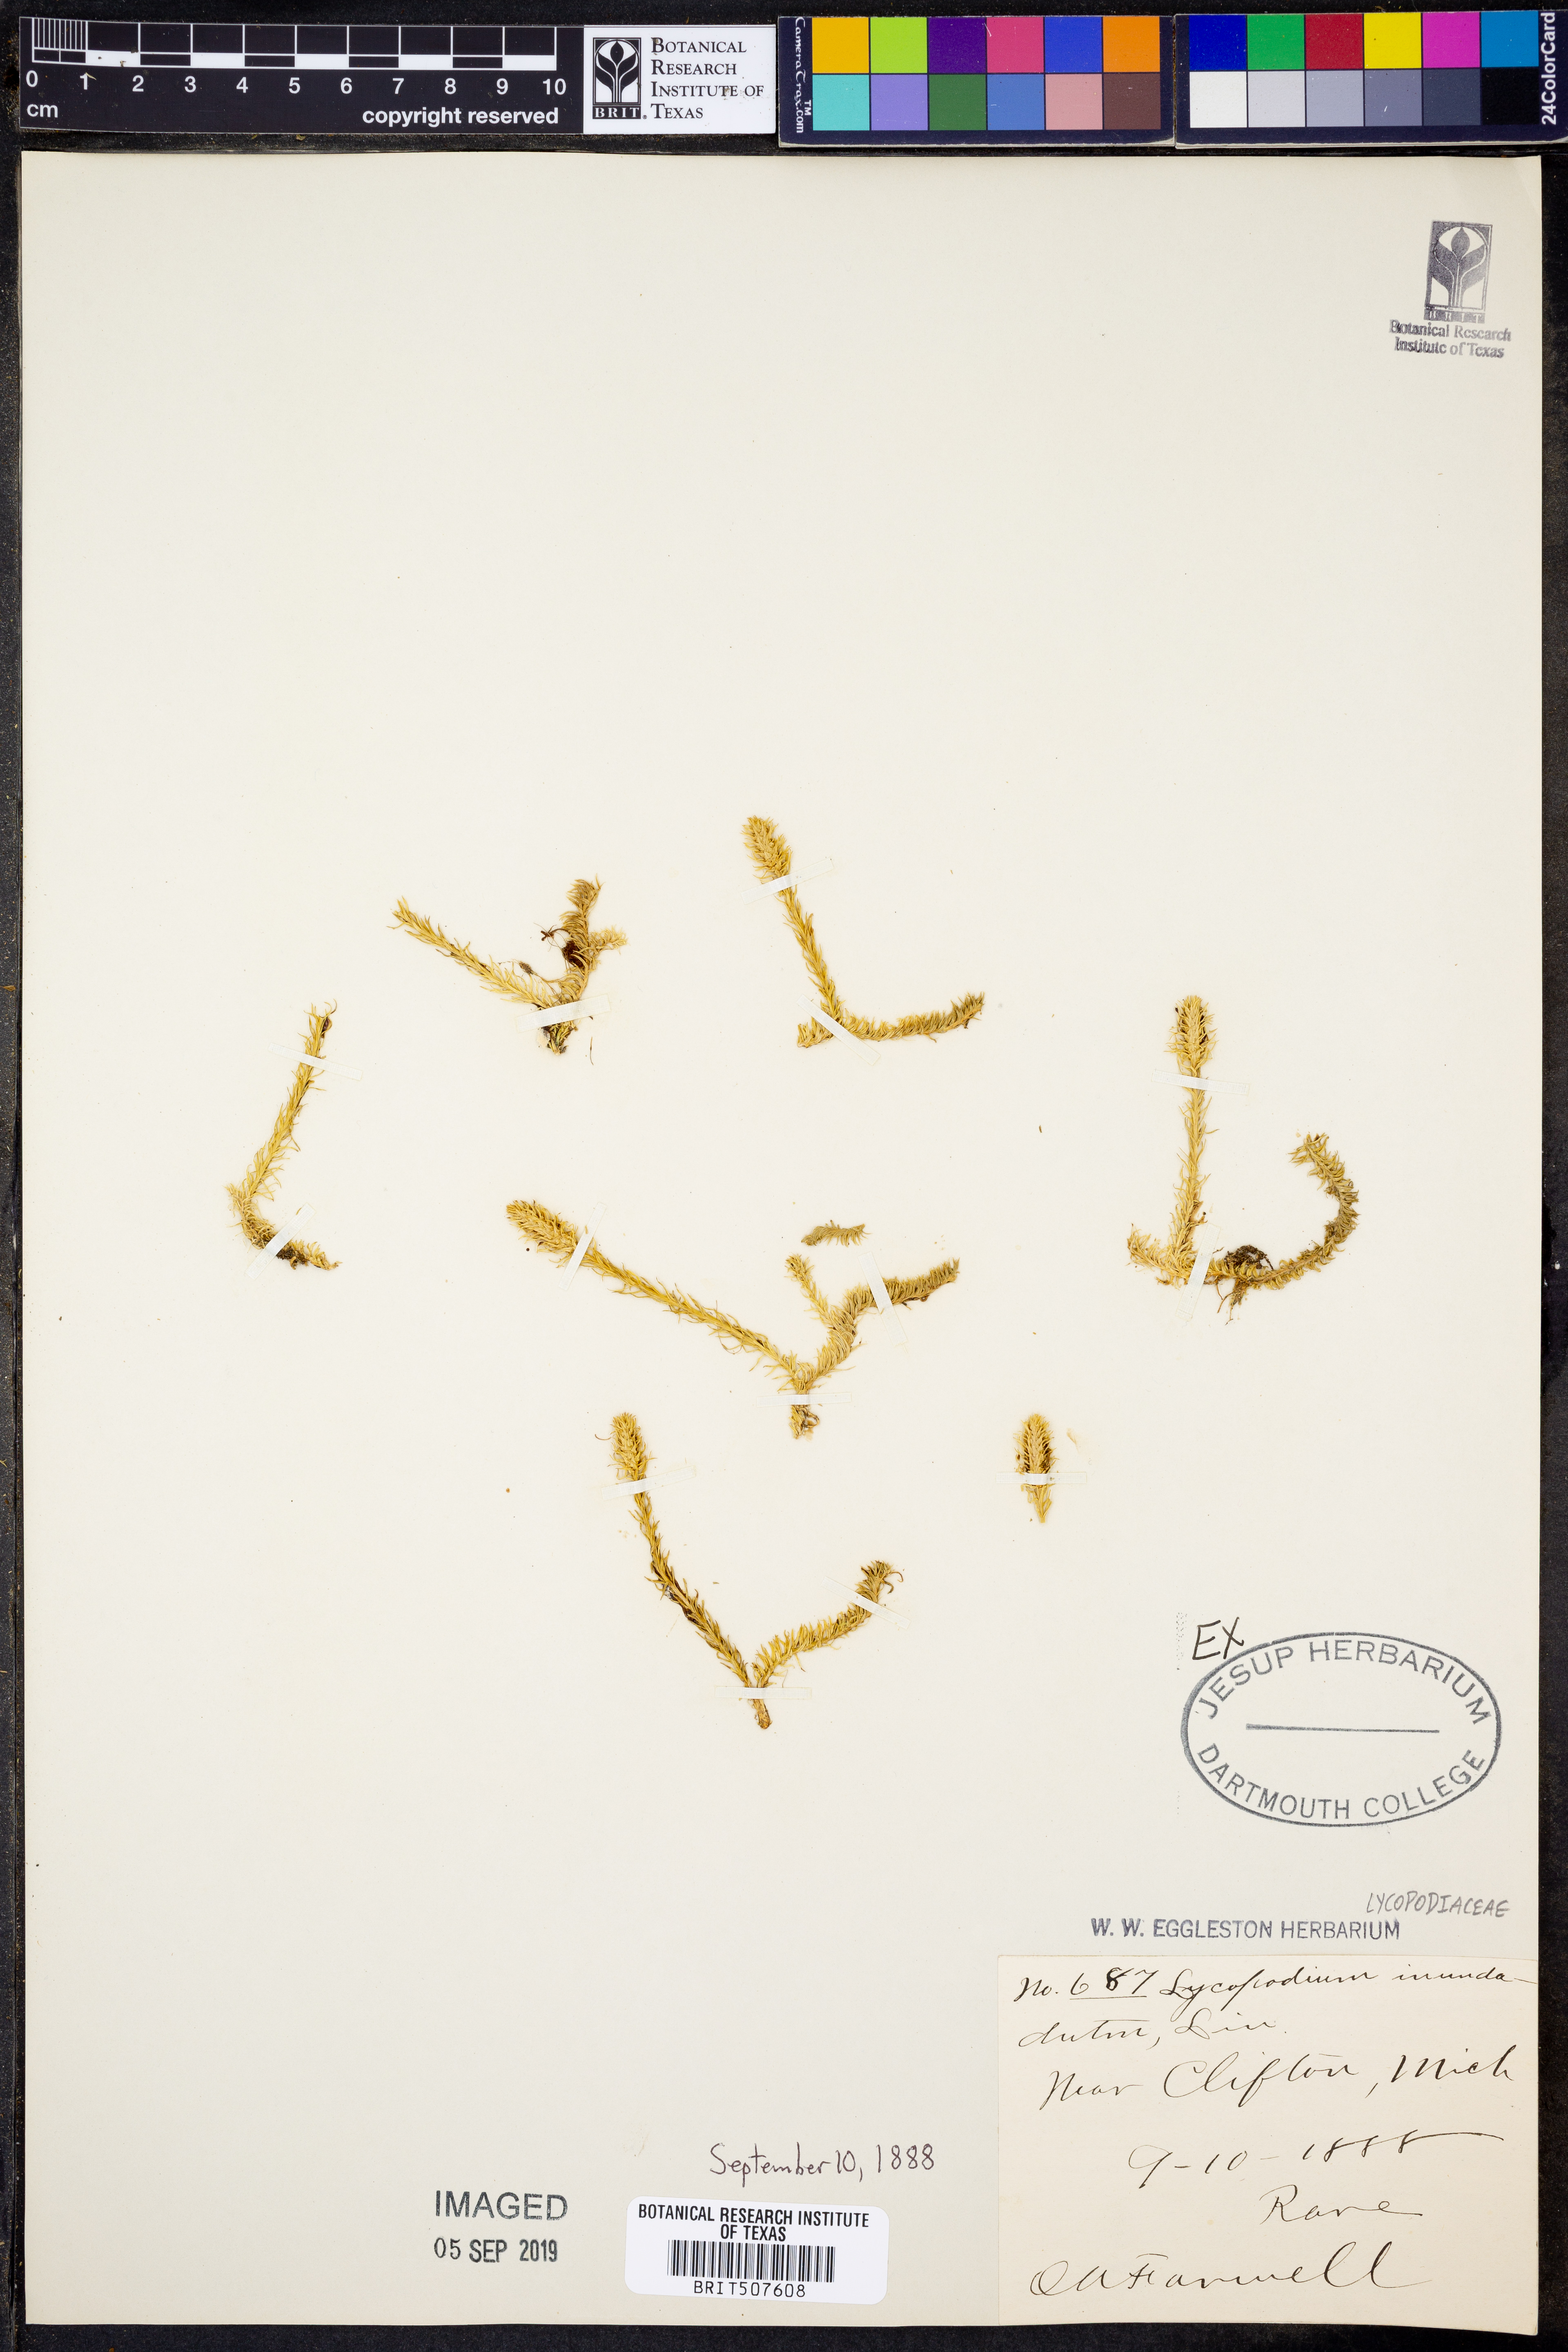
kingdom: Plantae
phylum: Tracheophyta
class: Lycopodiopsida
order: Lycopodiales
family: Lycopodiaceae
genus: Lycopodiella
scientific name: Lycopodiella inundata
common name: Marsh clubmoss
